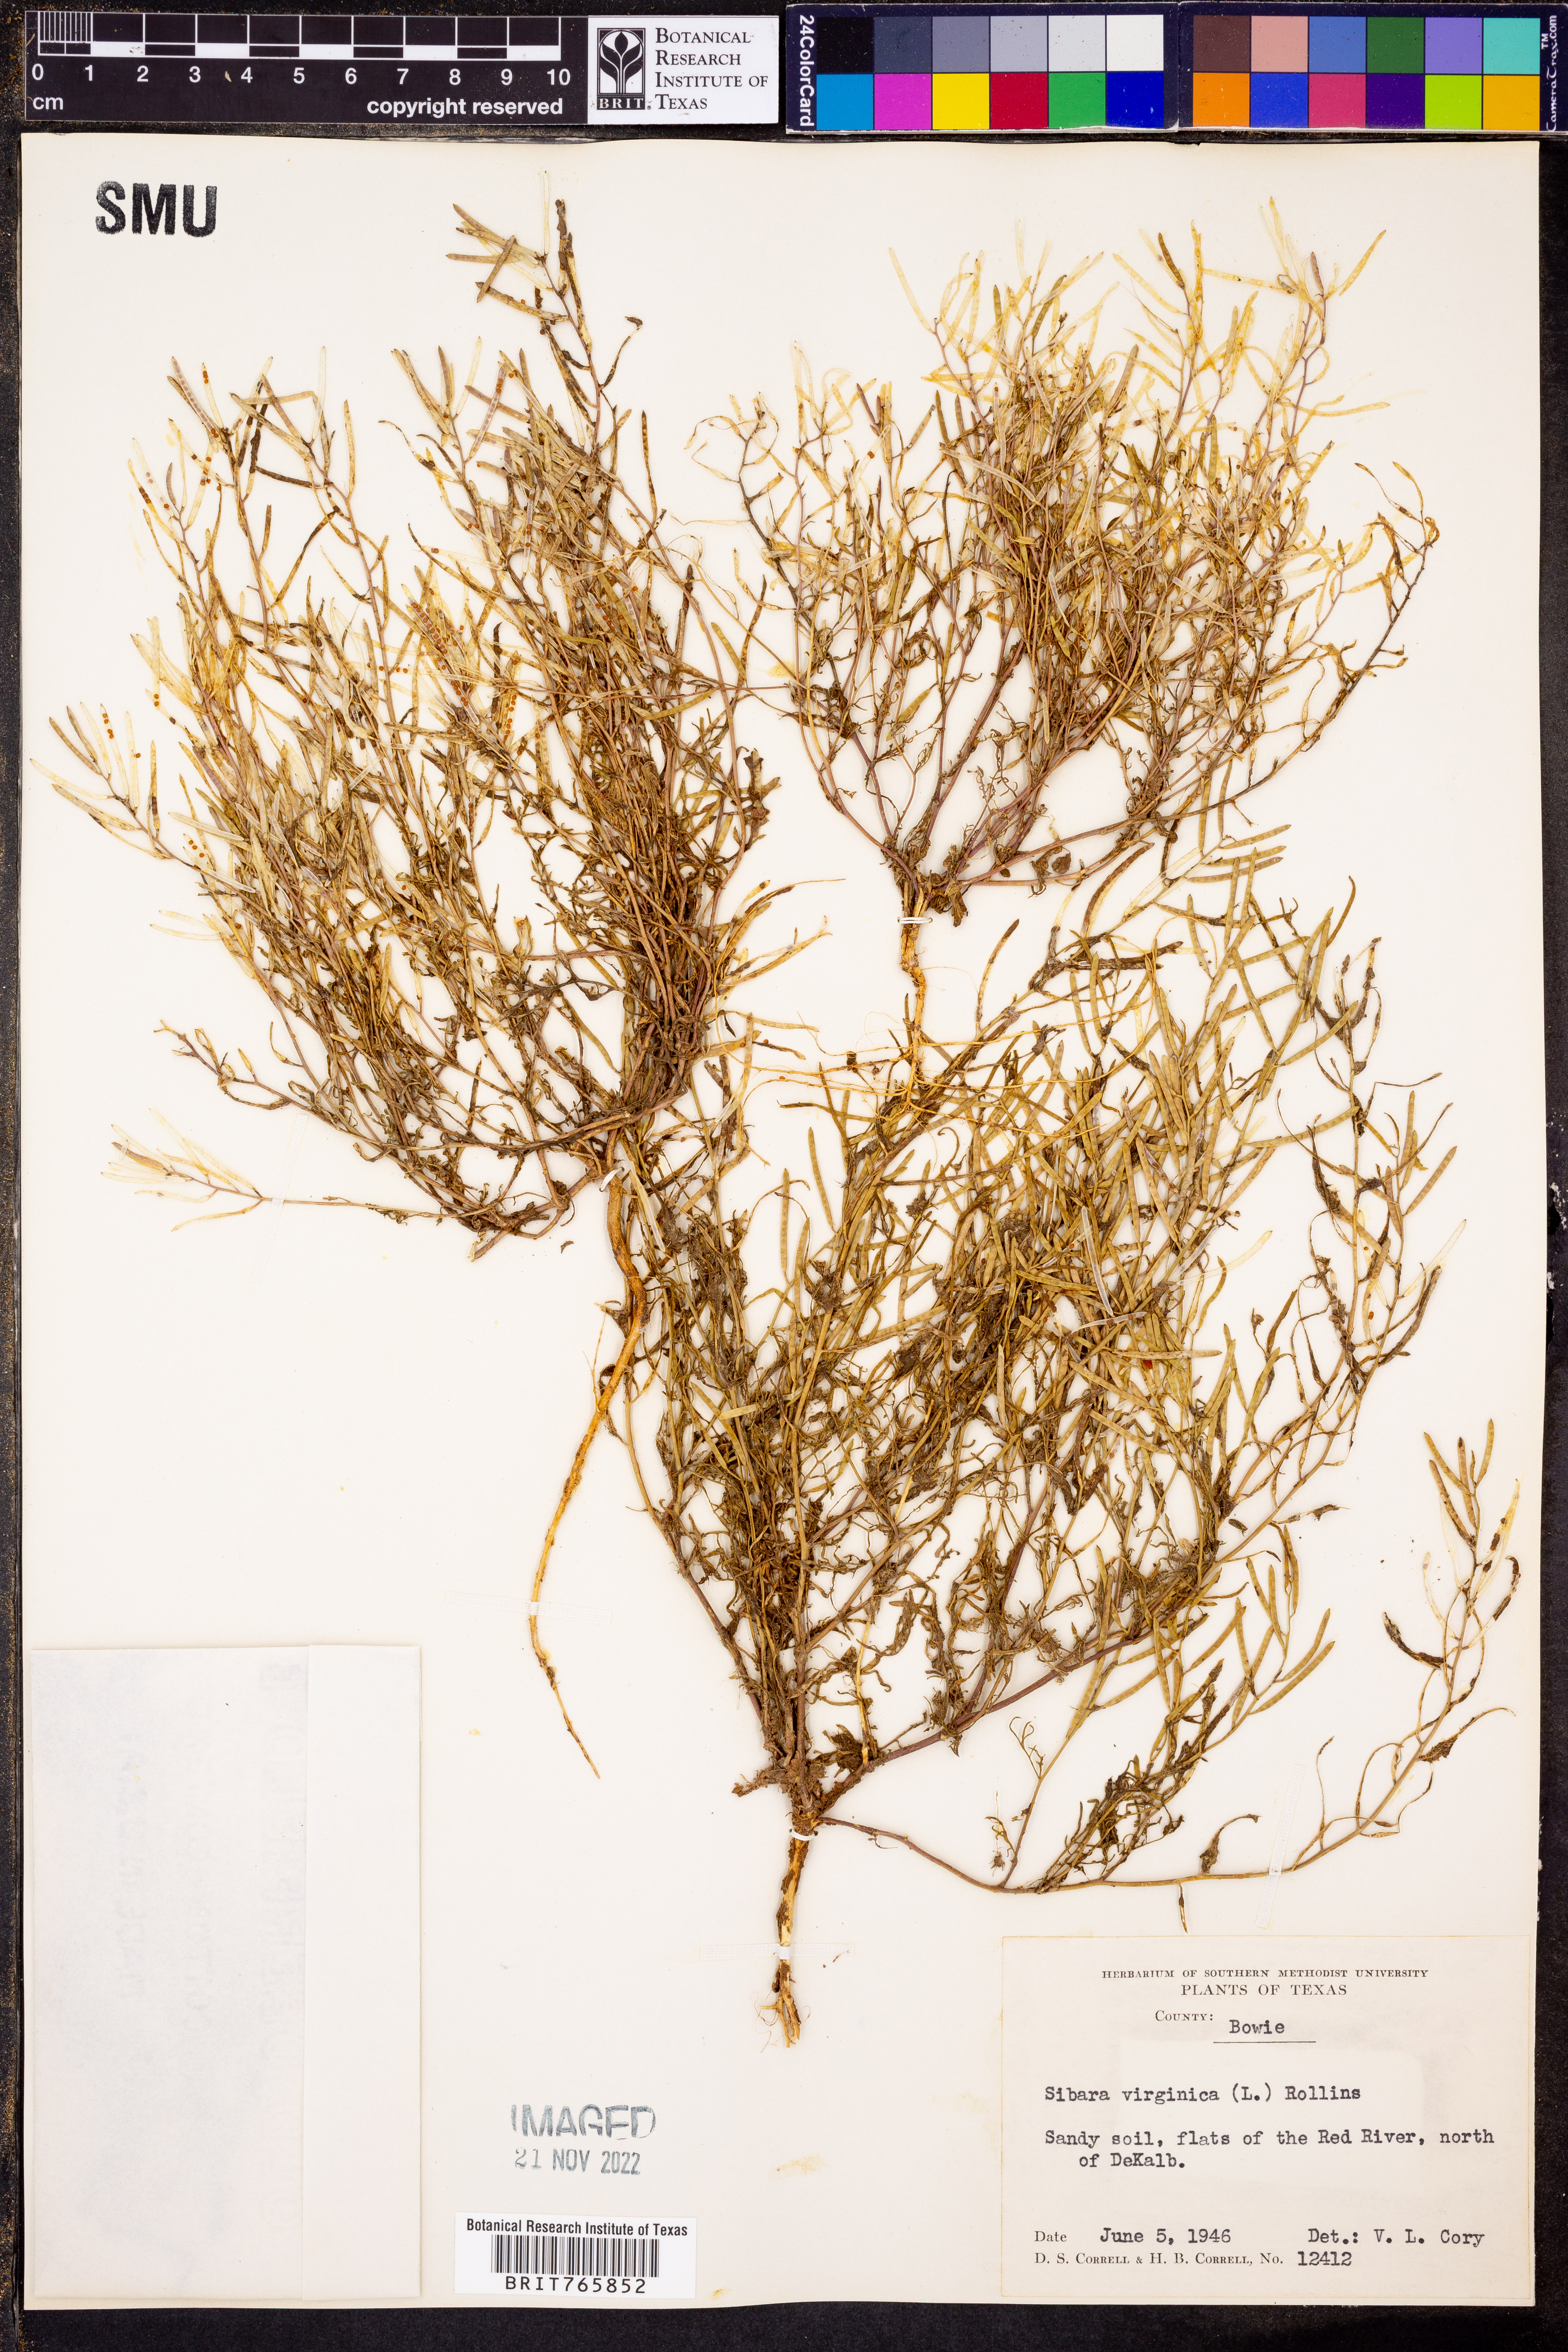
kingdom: Plantae
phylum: Tracheophyta
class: Magnoliopsida
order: Brassicales
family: Brassicaceae
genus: Planodes
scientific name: Planodes virginicum
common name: Virginia cress
